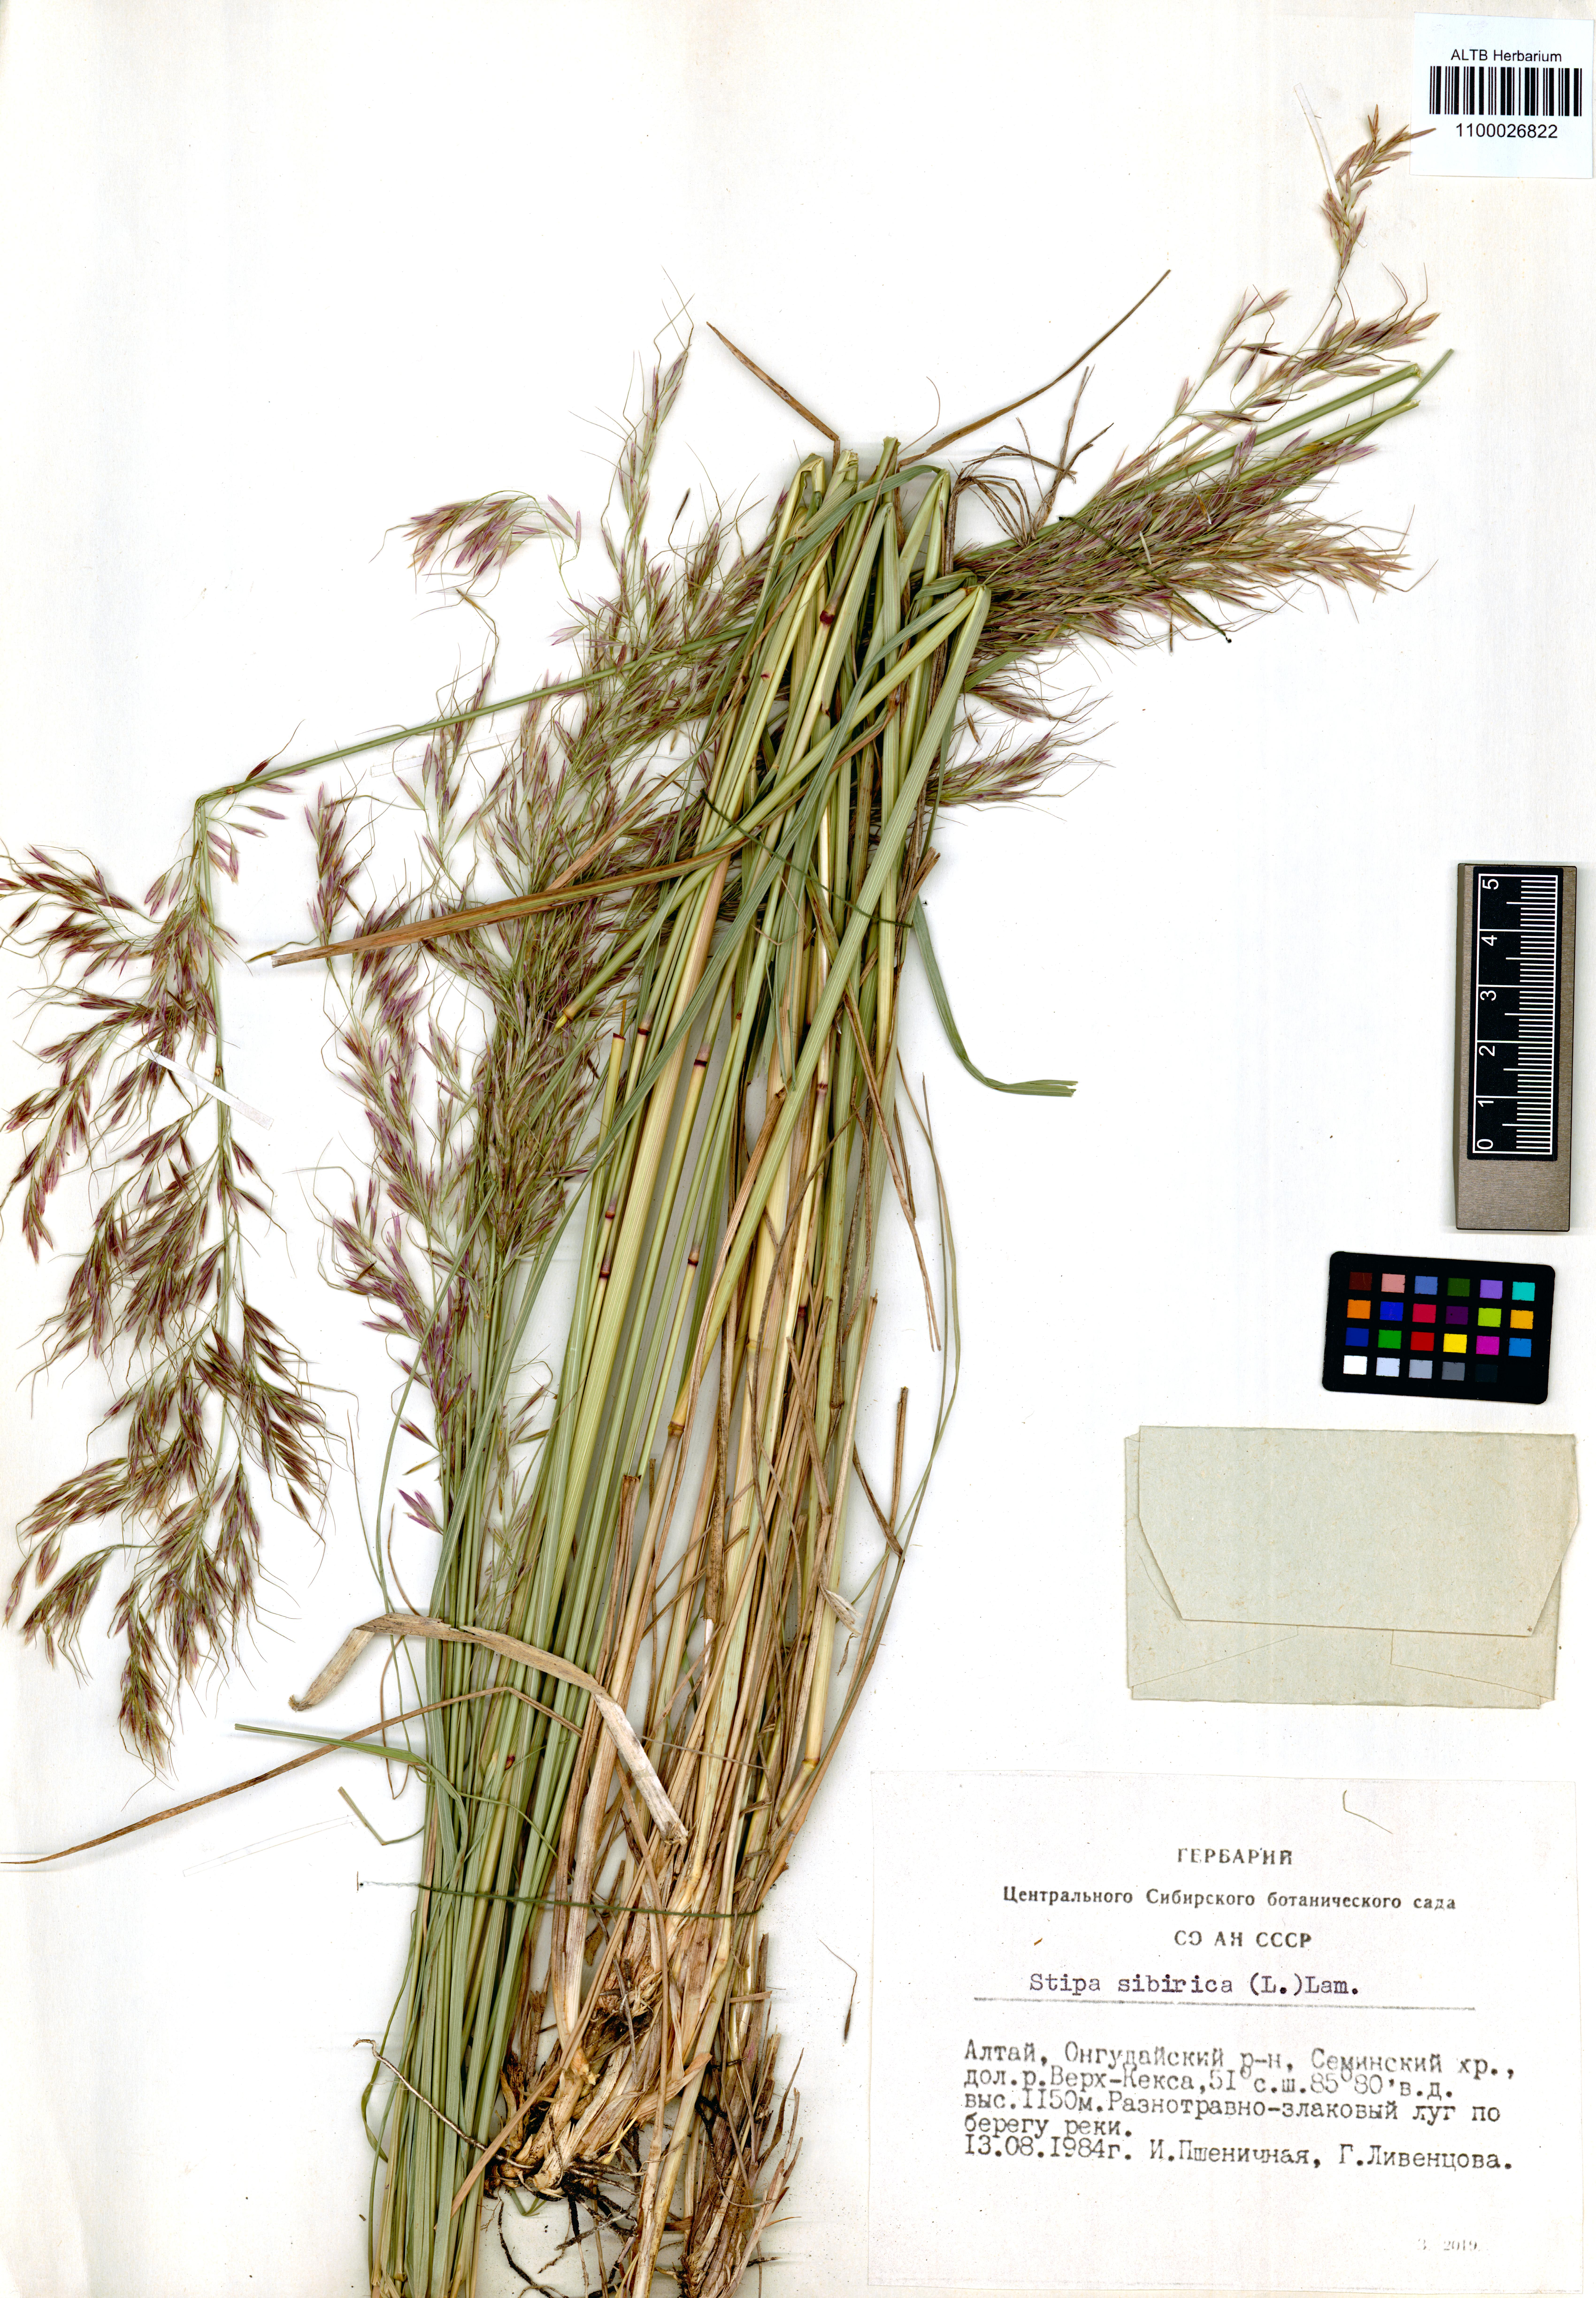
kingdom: Plantae
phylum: Tracheophyta
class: Liliopsida
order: Poales
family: Poaceae
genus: Achnatherum
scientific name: Achnatherum sibiricum
